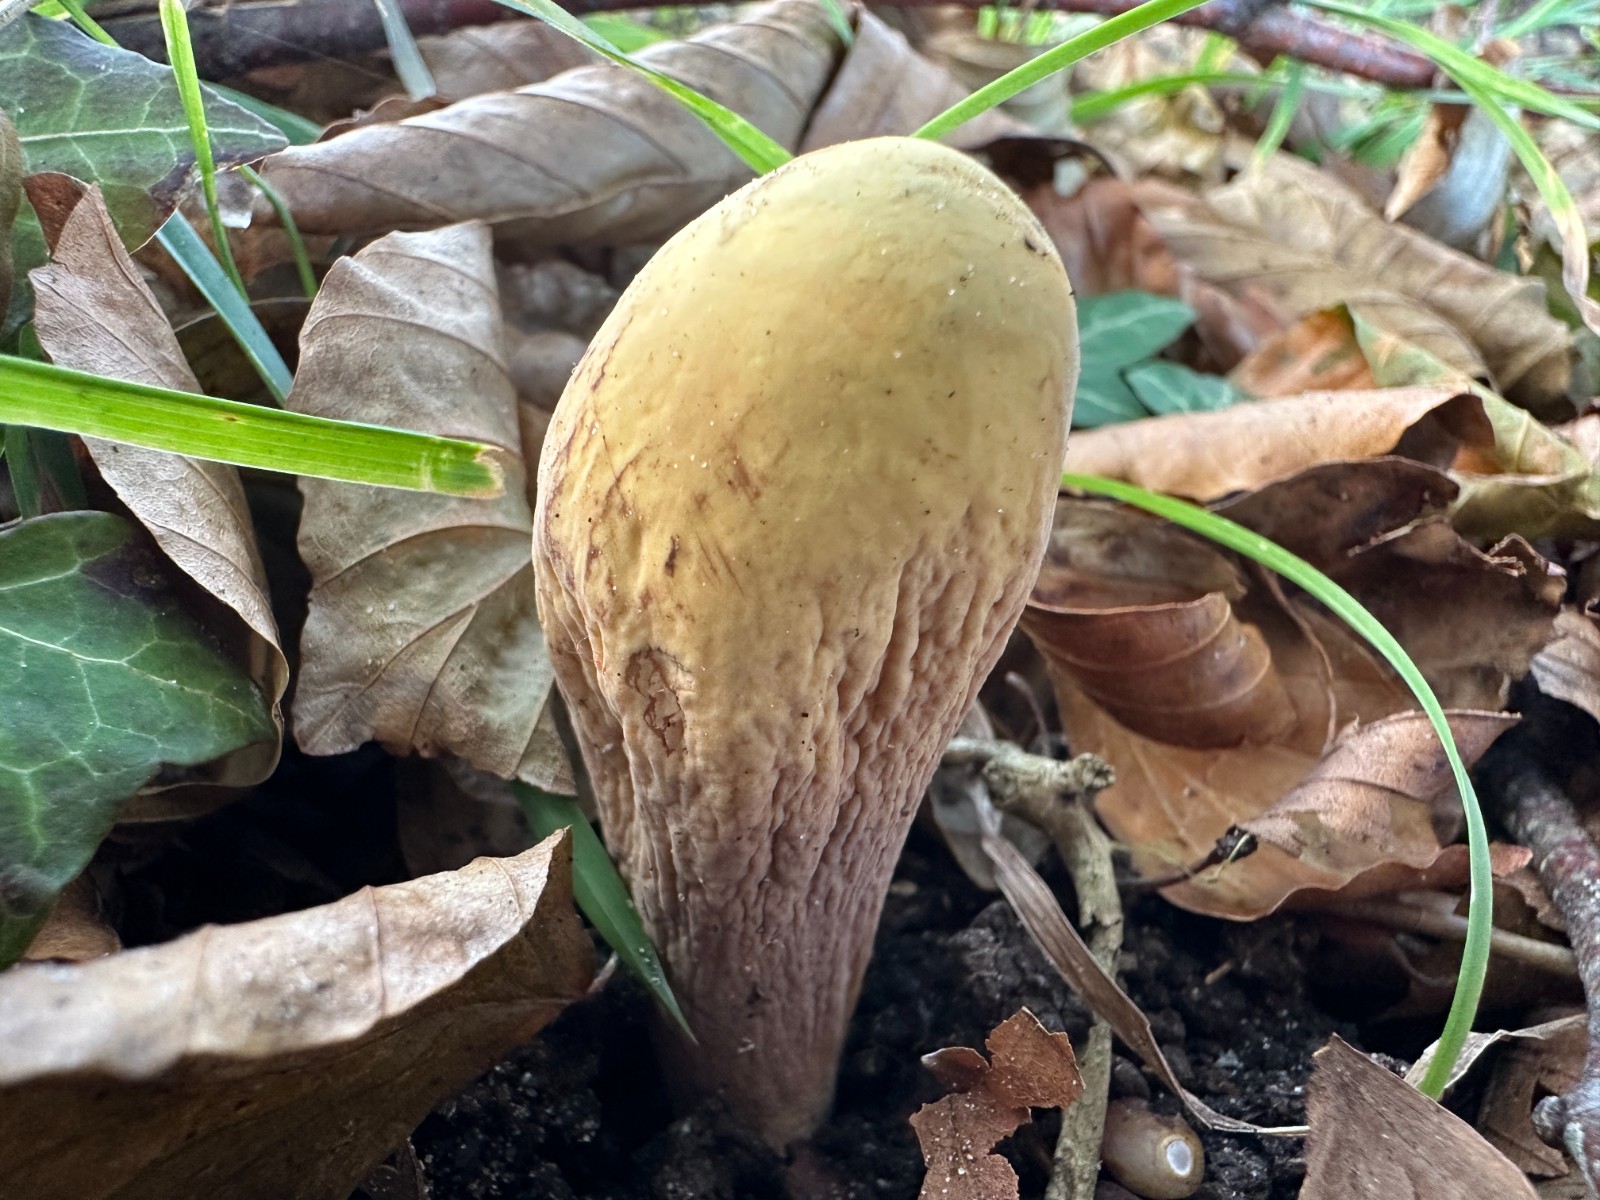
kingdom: Fungi
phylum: Basidiomycota
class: Agaricomycetes
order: Gomphales
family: Clavariadelphaceae
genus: Clavariadelphus
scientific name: Clavariadelphus pistillaris
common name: herkules-kæmpekølle
